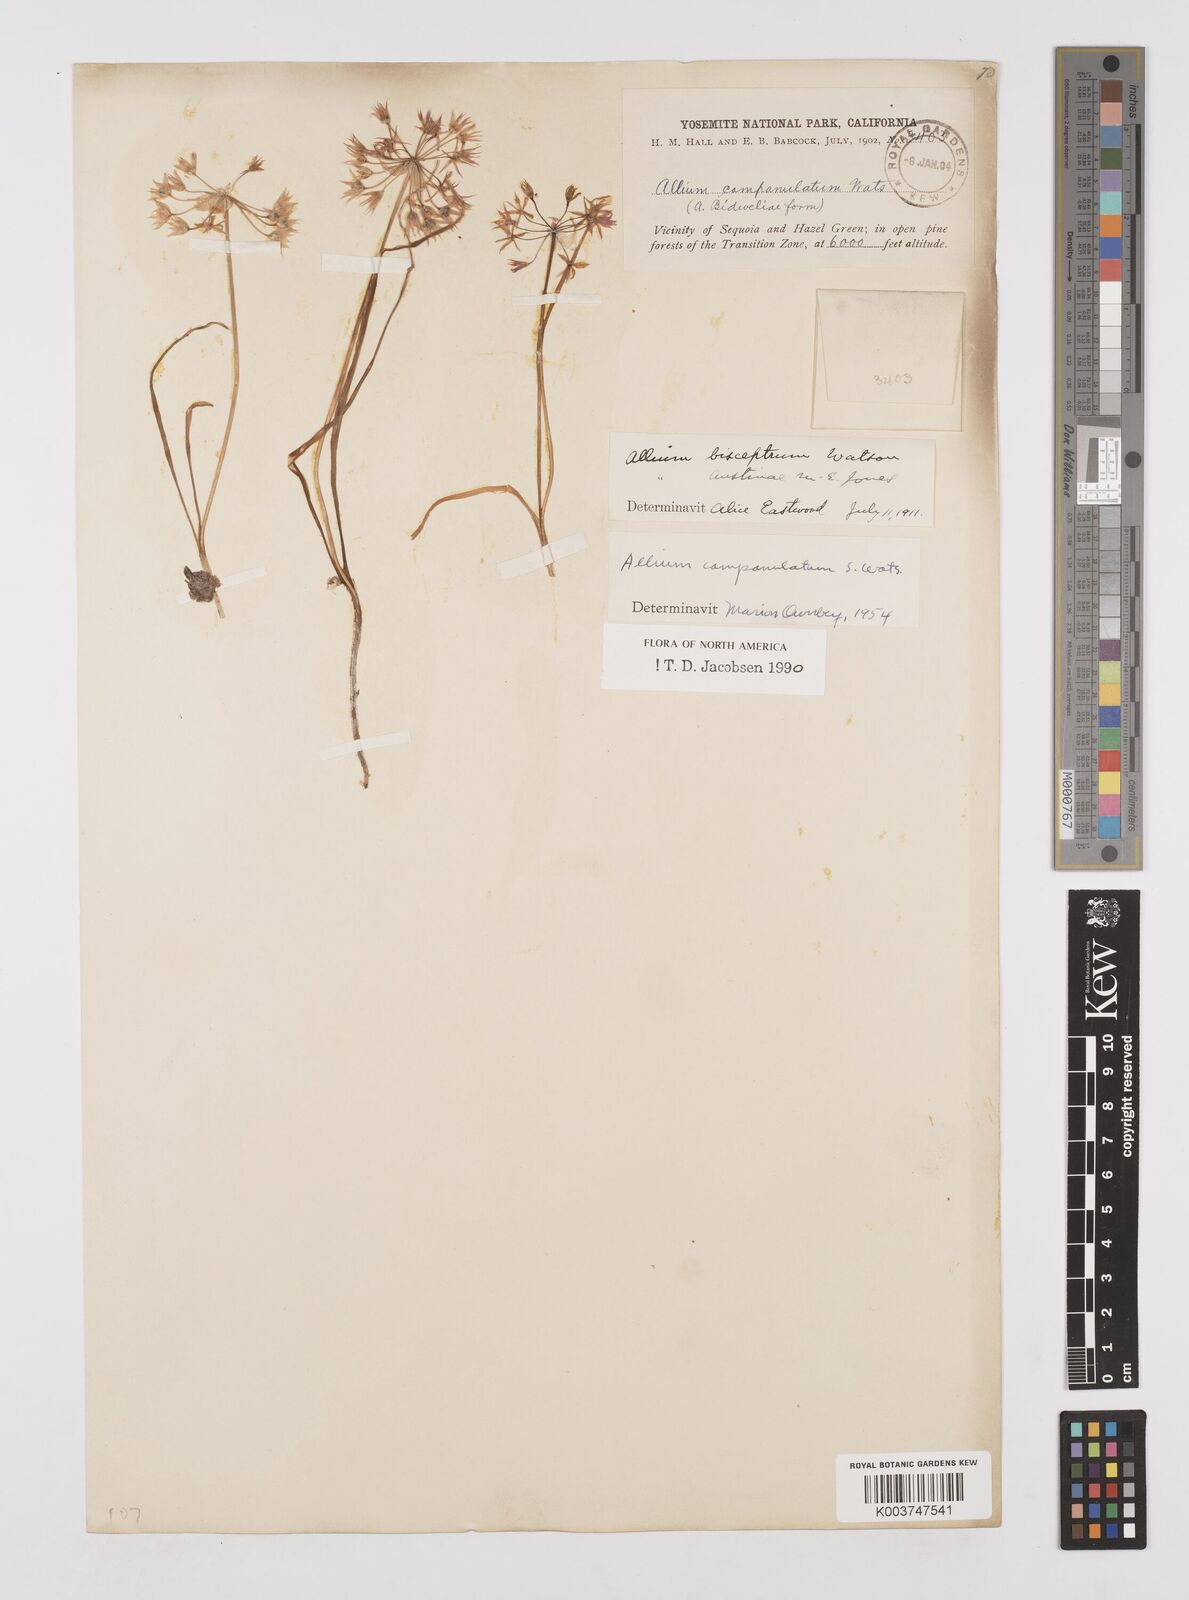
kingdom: Plantae
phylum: Tracheophyta
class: Liliopsida
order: Asparagales
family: Amaryllidaceae
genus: Allium
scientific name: Allium campanulatum
